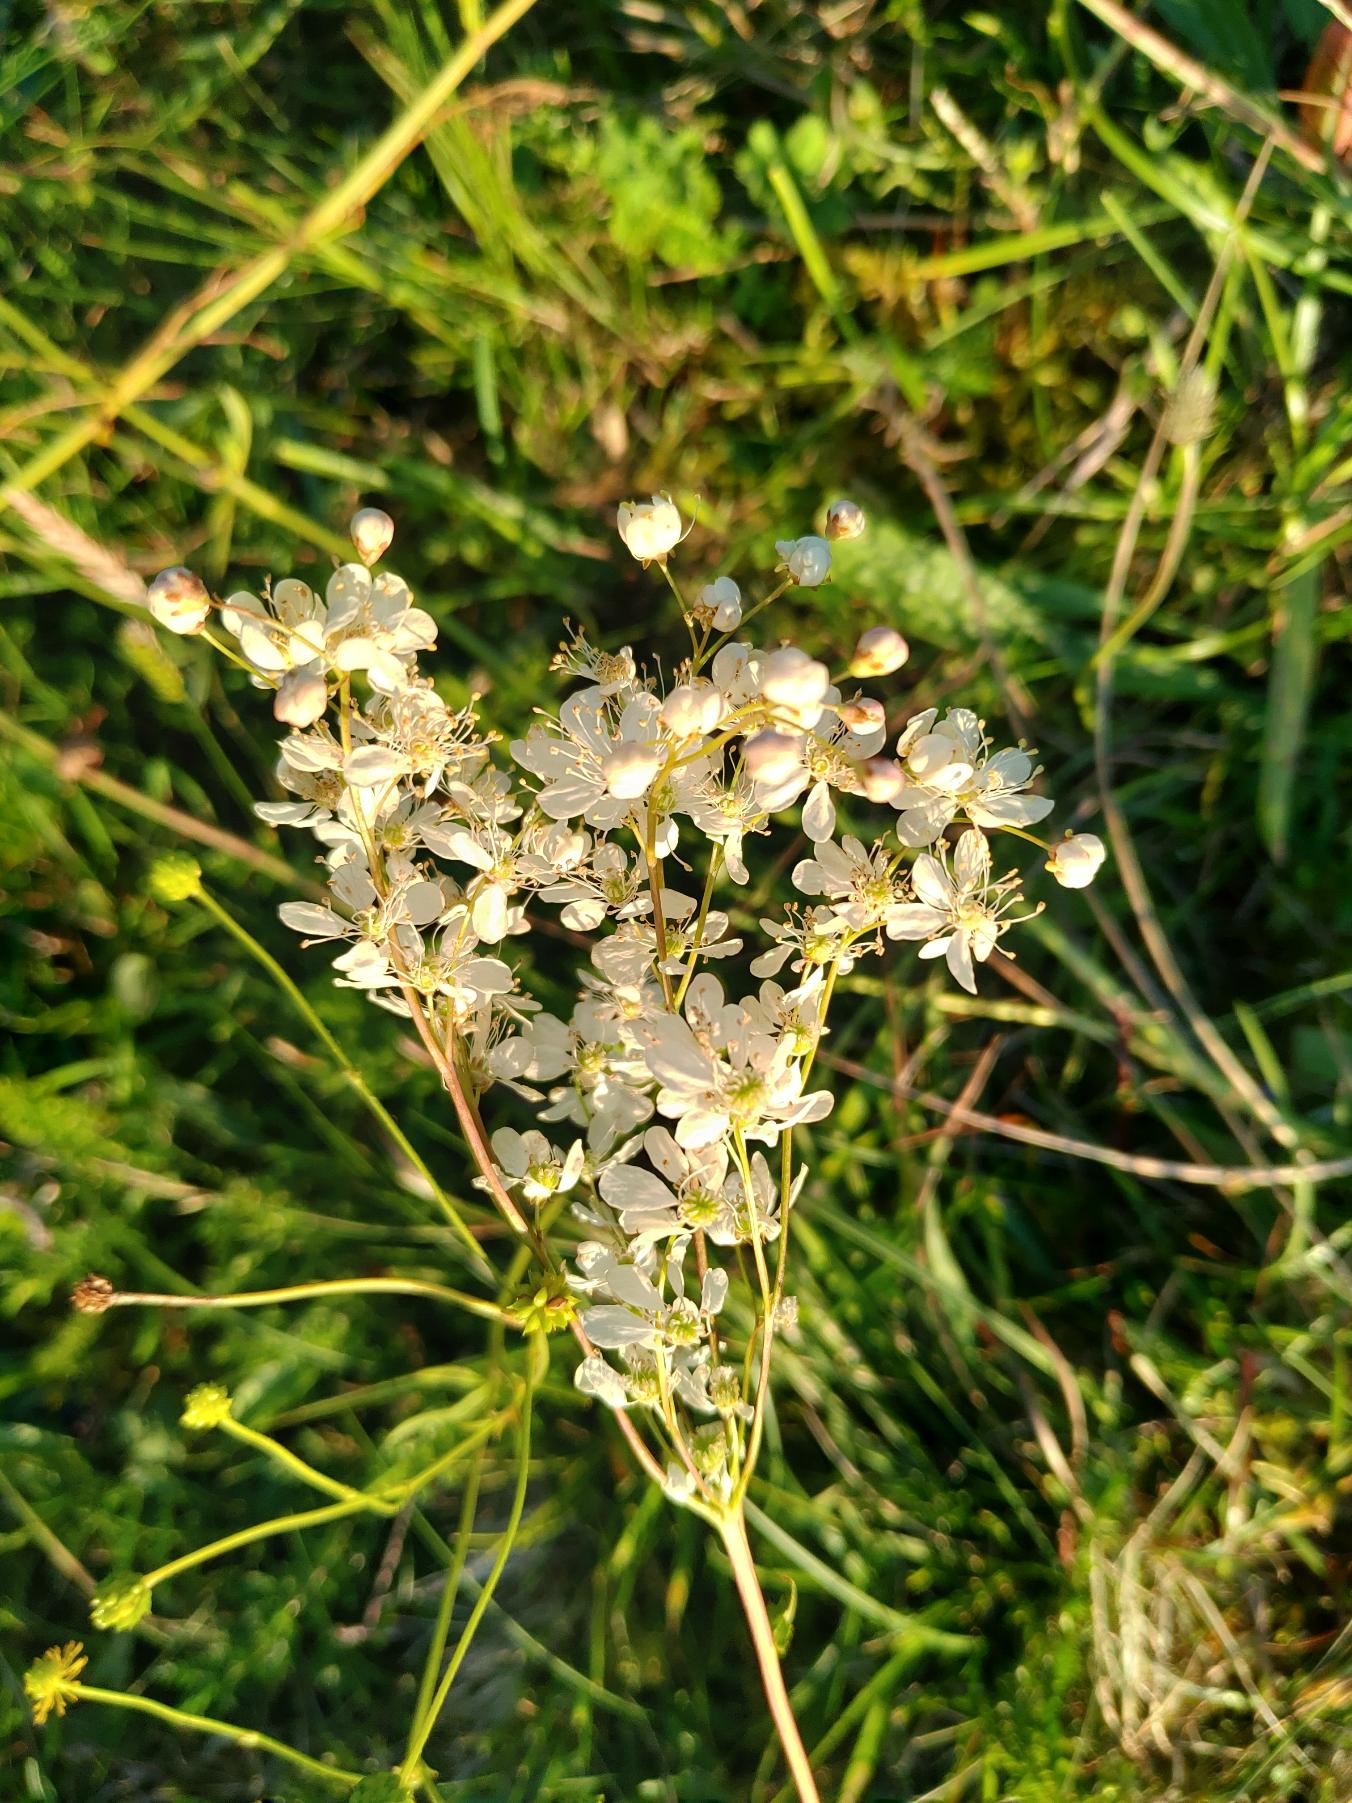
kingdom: Plantae
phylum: Tracheophyta
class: Magnoliopsida
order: Rosales
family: Rosaceae
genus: Filipendula
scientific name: Filipendula vulgaris
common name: Knoldet mjødurt
